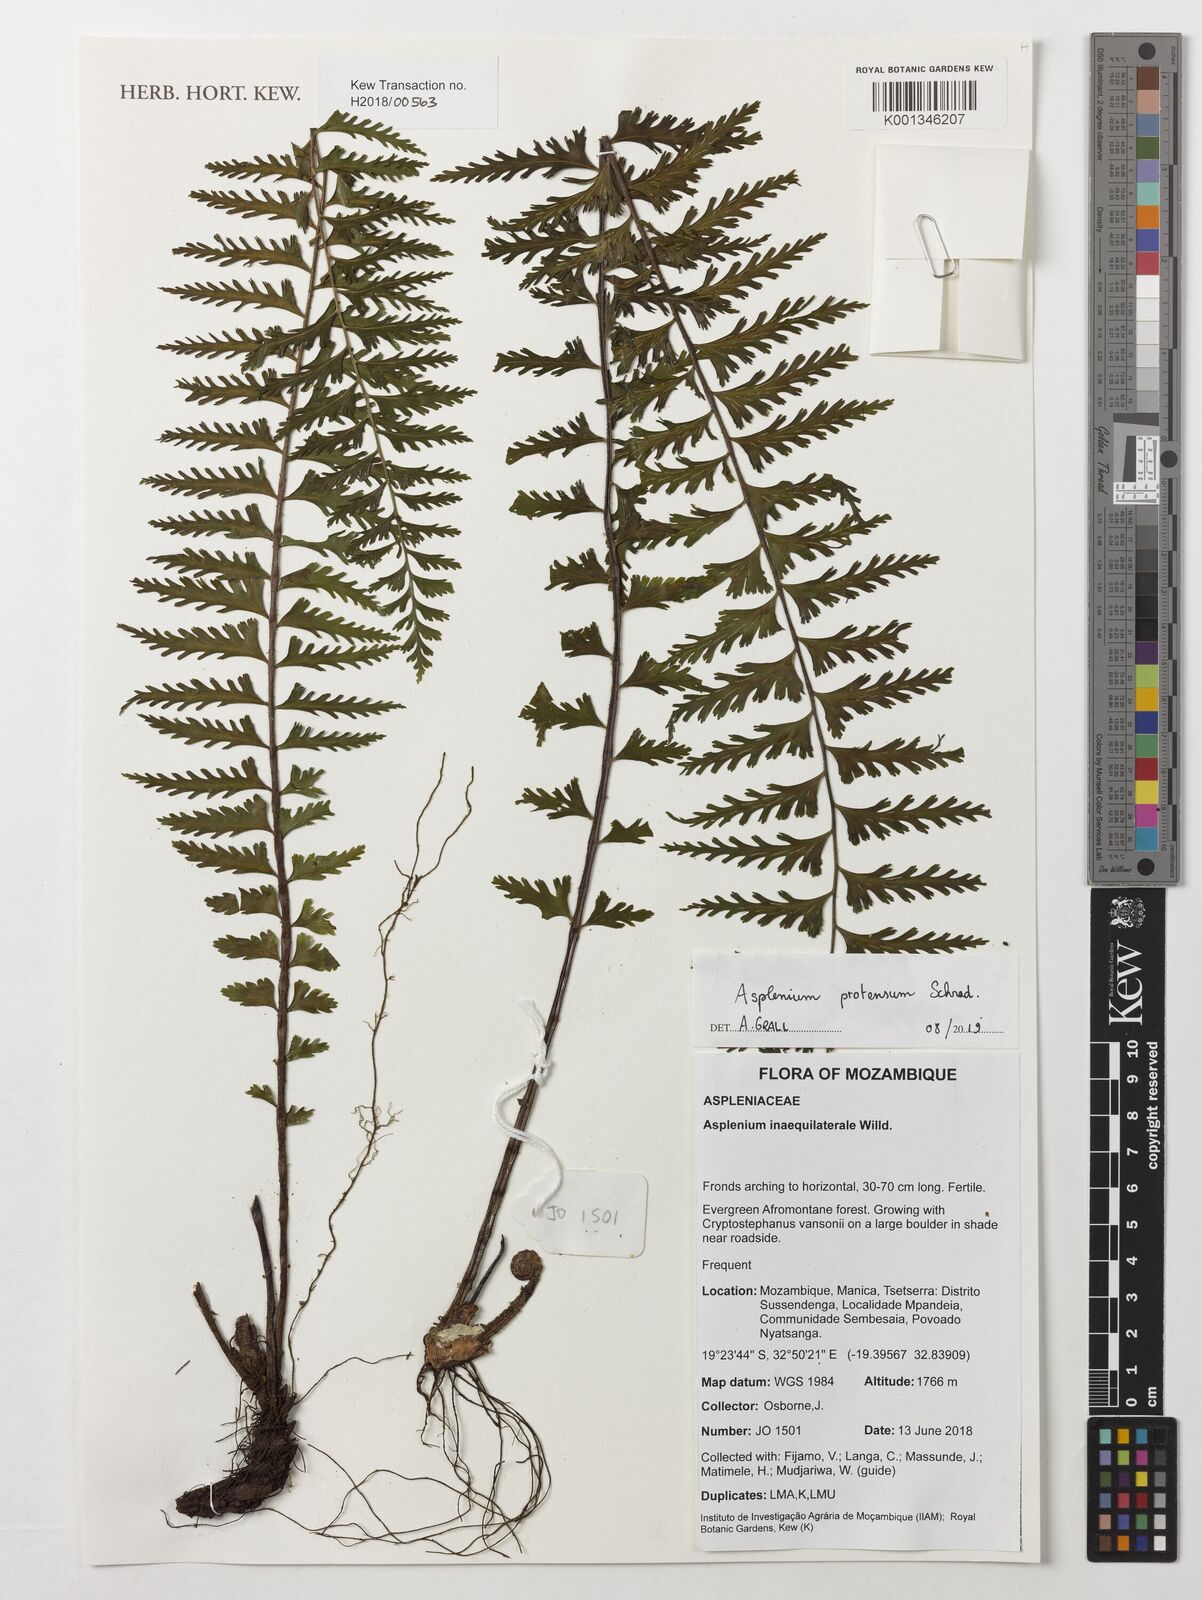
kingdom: Plantae
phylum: Tracheophyta
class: Polypodiopsida
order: Polypodiales
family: Aspleniaceae
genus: Asplenium
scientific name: Asplenium protensum
